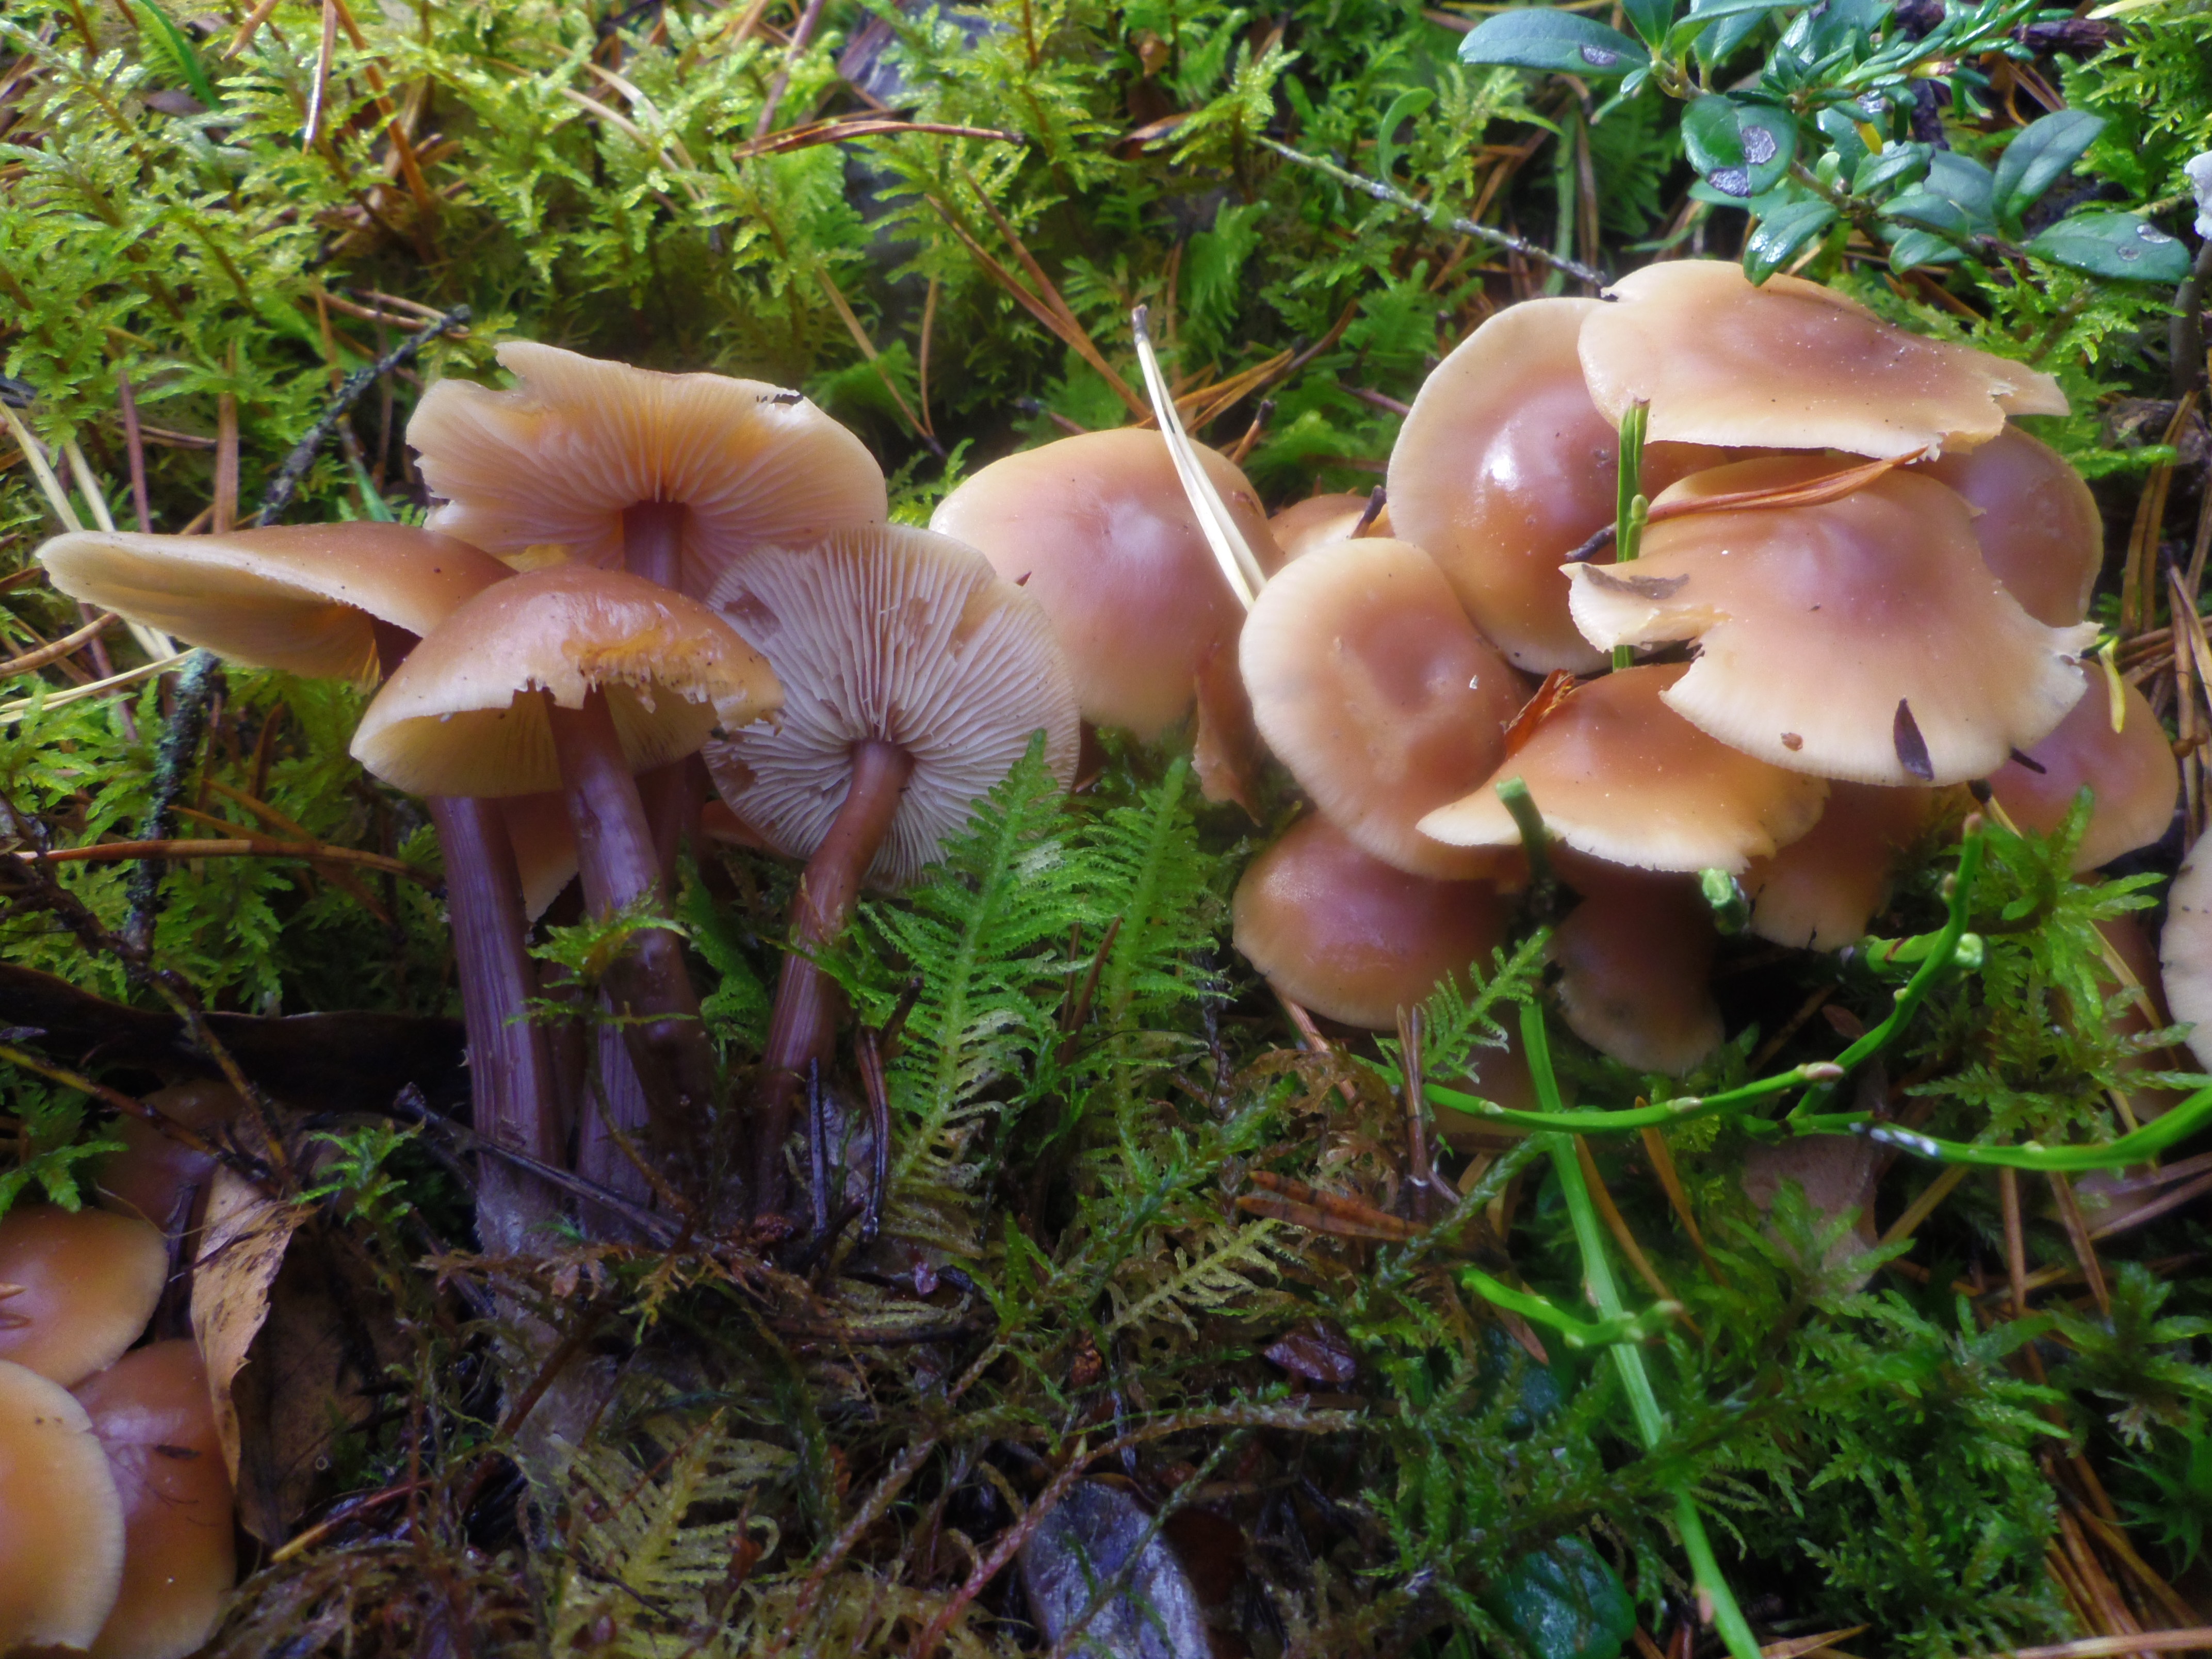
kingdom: Fungi
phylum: Basidiomycota
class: Agaricomycetes
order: Agaricales
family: Omphalotaceae
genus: Connopus
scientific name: Connopus acervatus
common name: Cluster cap
